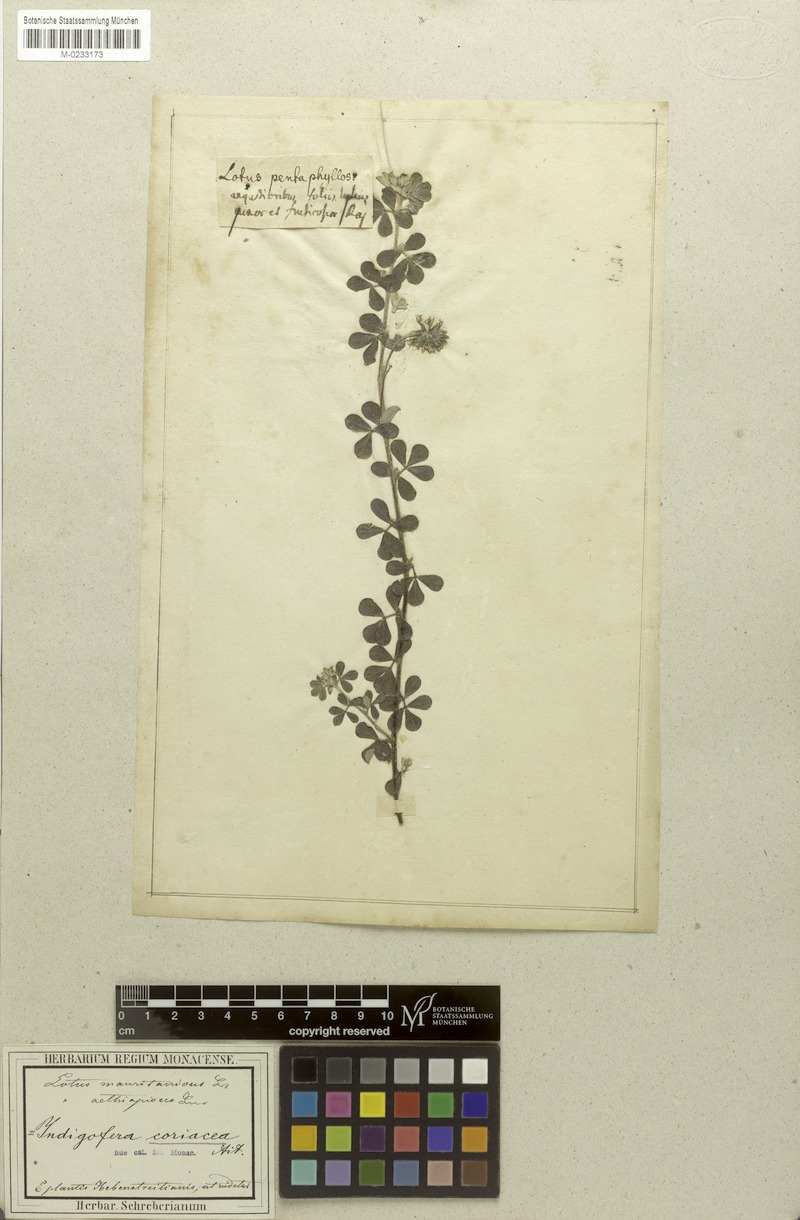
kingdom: Plantae
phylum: Tracheophyta
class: Magnoliopsida
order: Fabales
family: Fabaceae
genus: Indigofera
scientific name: Indigofera mauritanica
